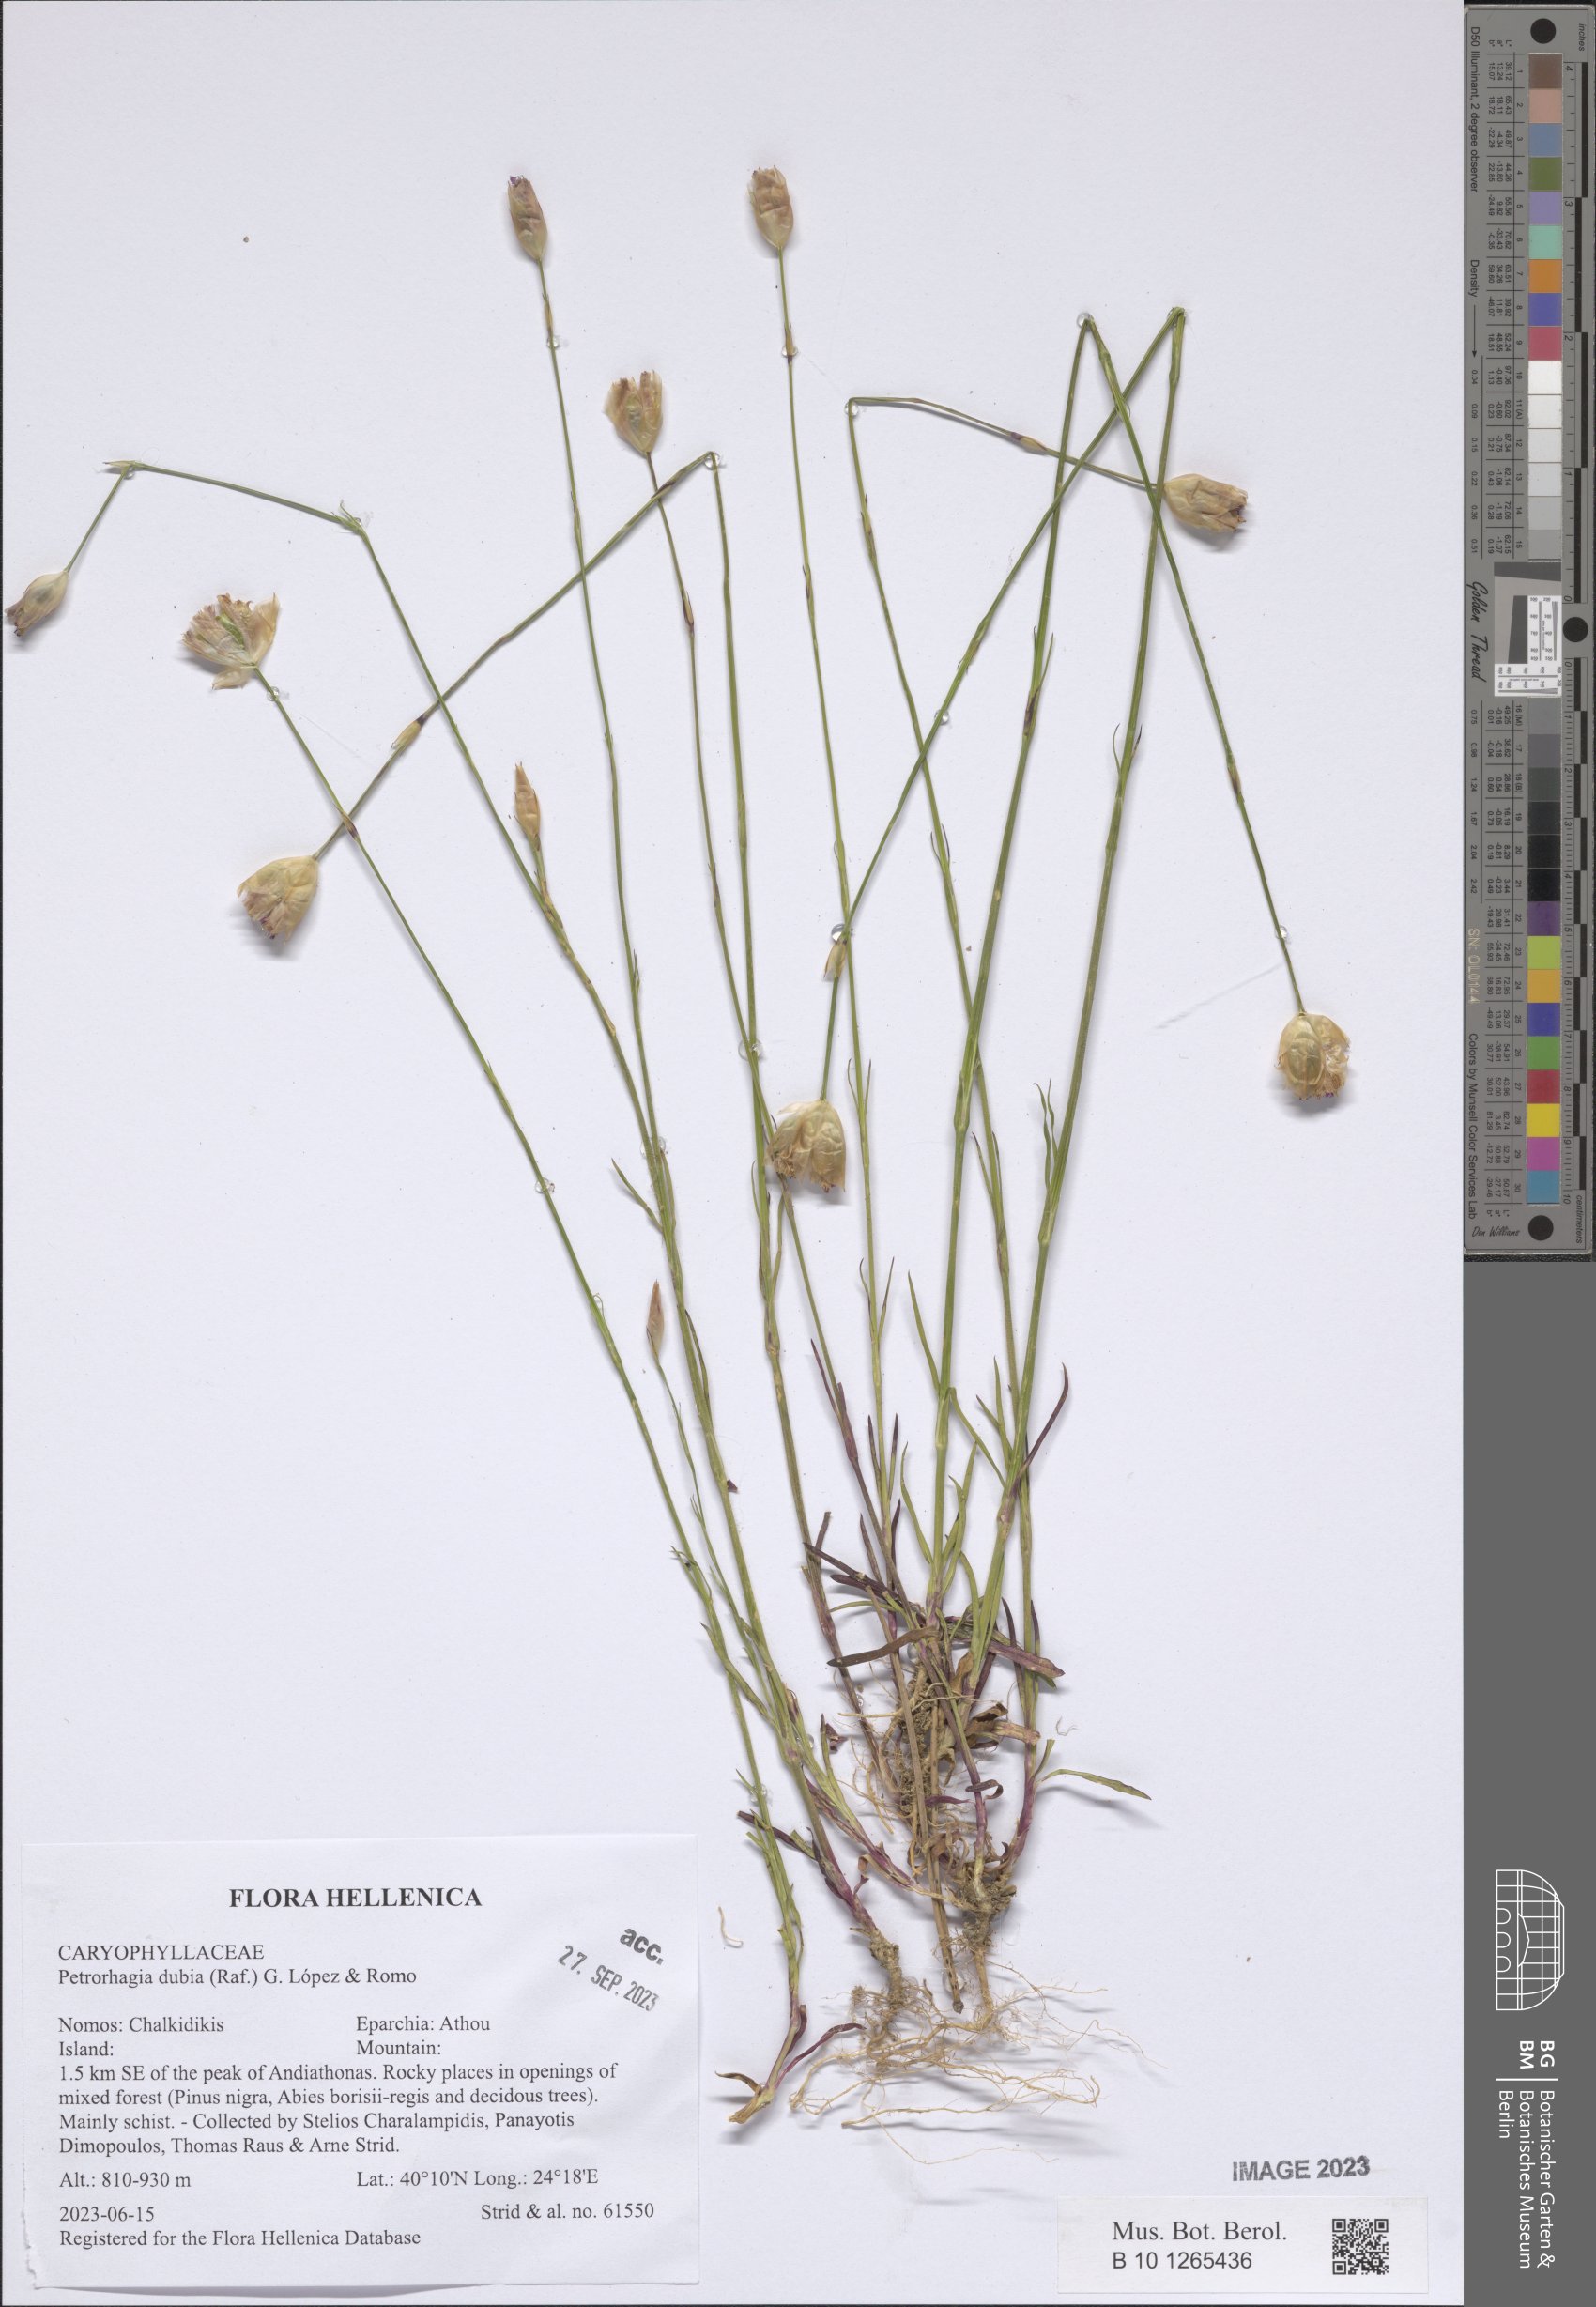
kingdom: Plantae
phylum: Tracheophyta
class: Magnoliopsida
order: Caryophyllales
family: Caryophyllaceae
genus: Petrorhagia
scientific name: Petrorhagia dubia
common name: Hairypink
